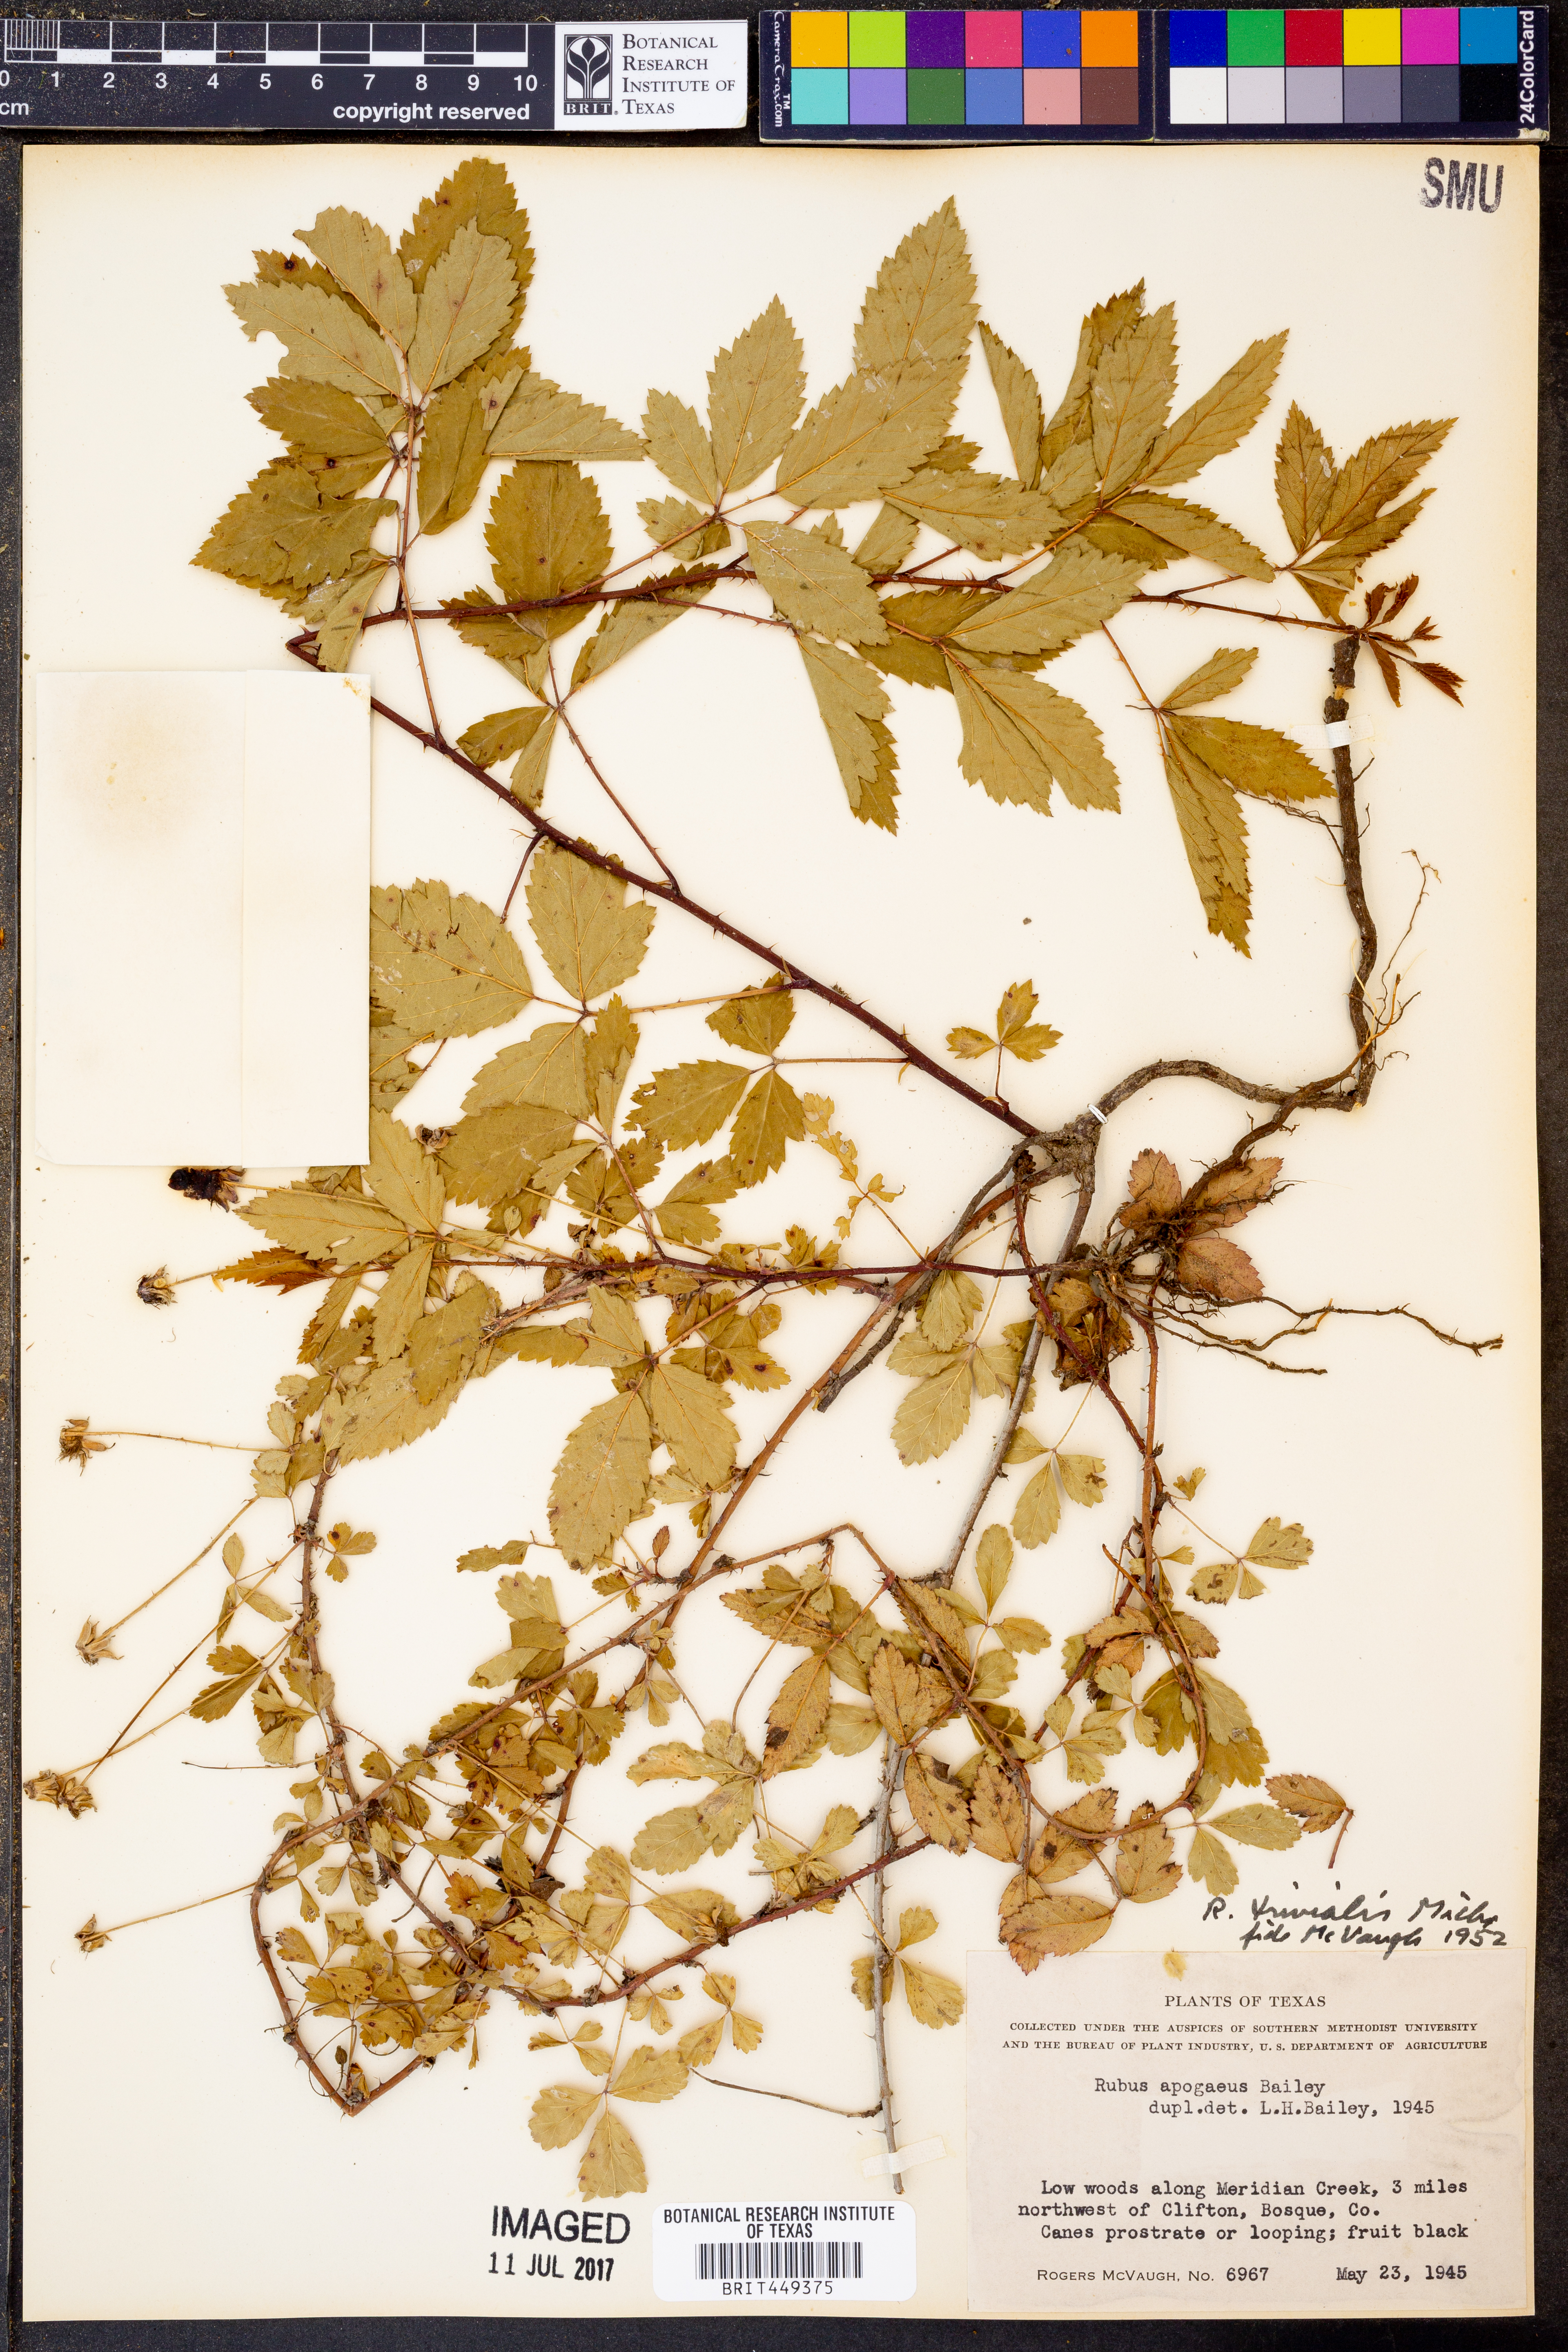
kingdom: Plantae
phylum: Tracheophyta
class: Magnoliopsida
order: Rosales
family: Rosaceae
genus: Rubus
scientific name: Rubus trivialis
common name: Southern dewberry
